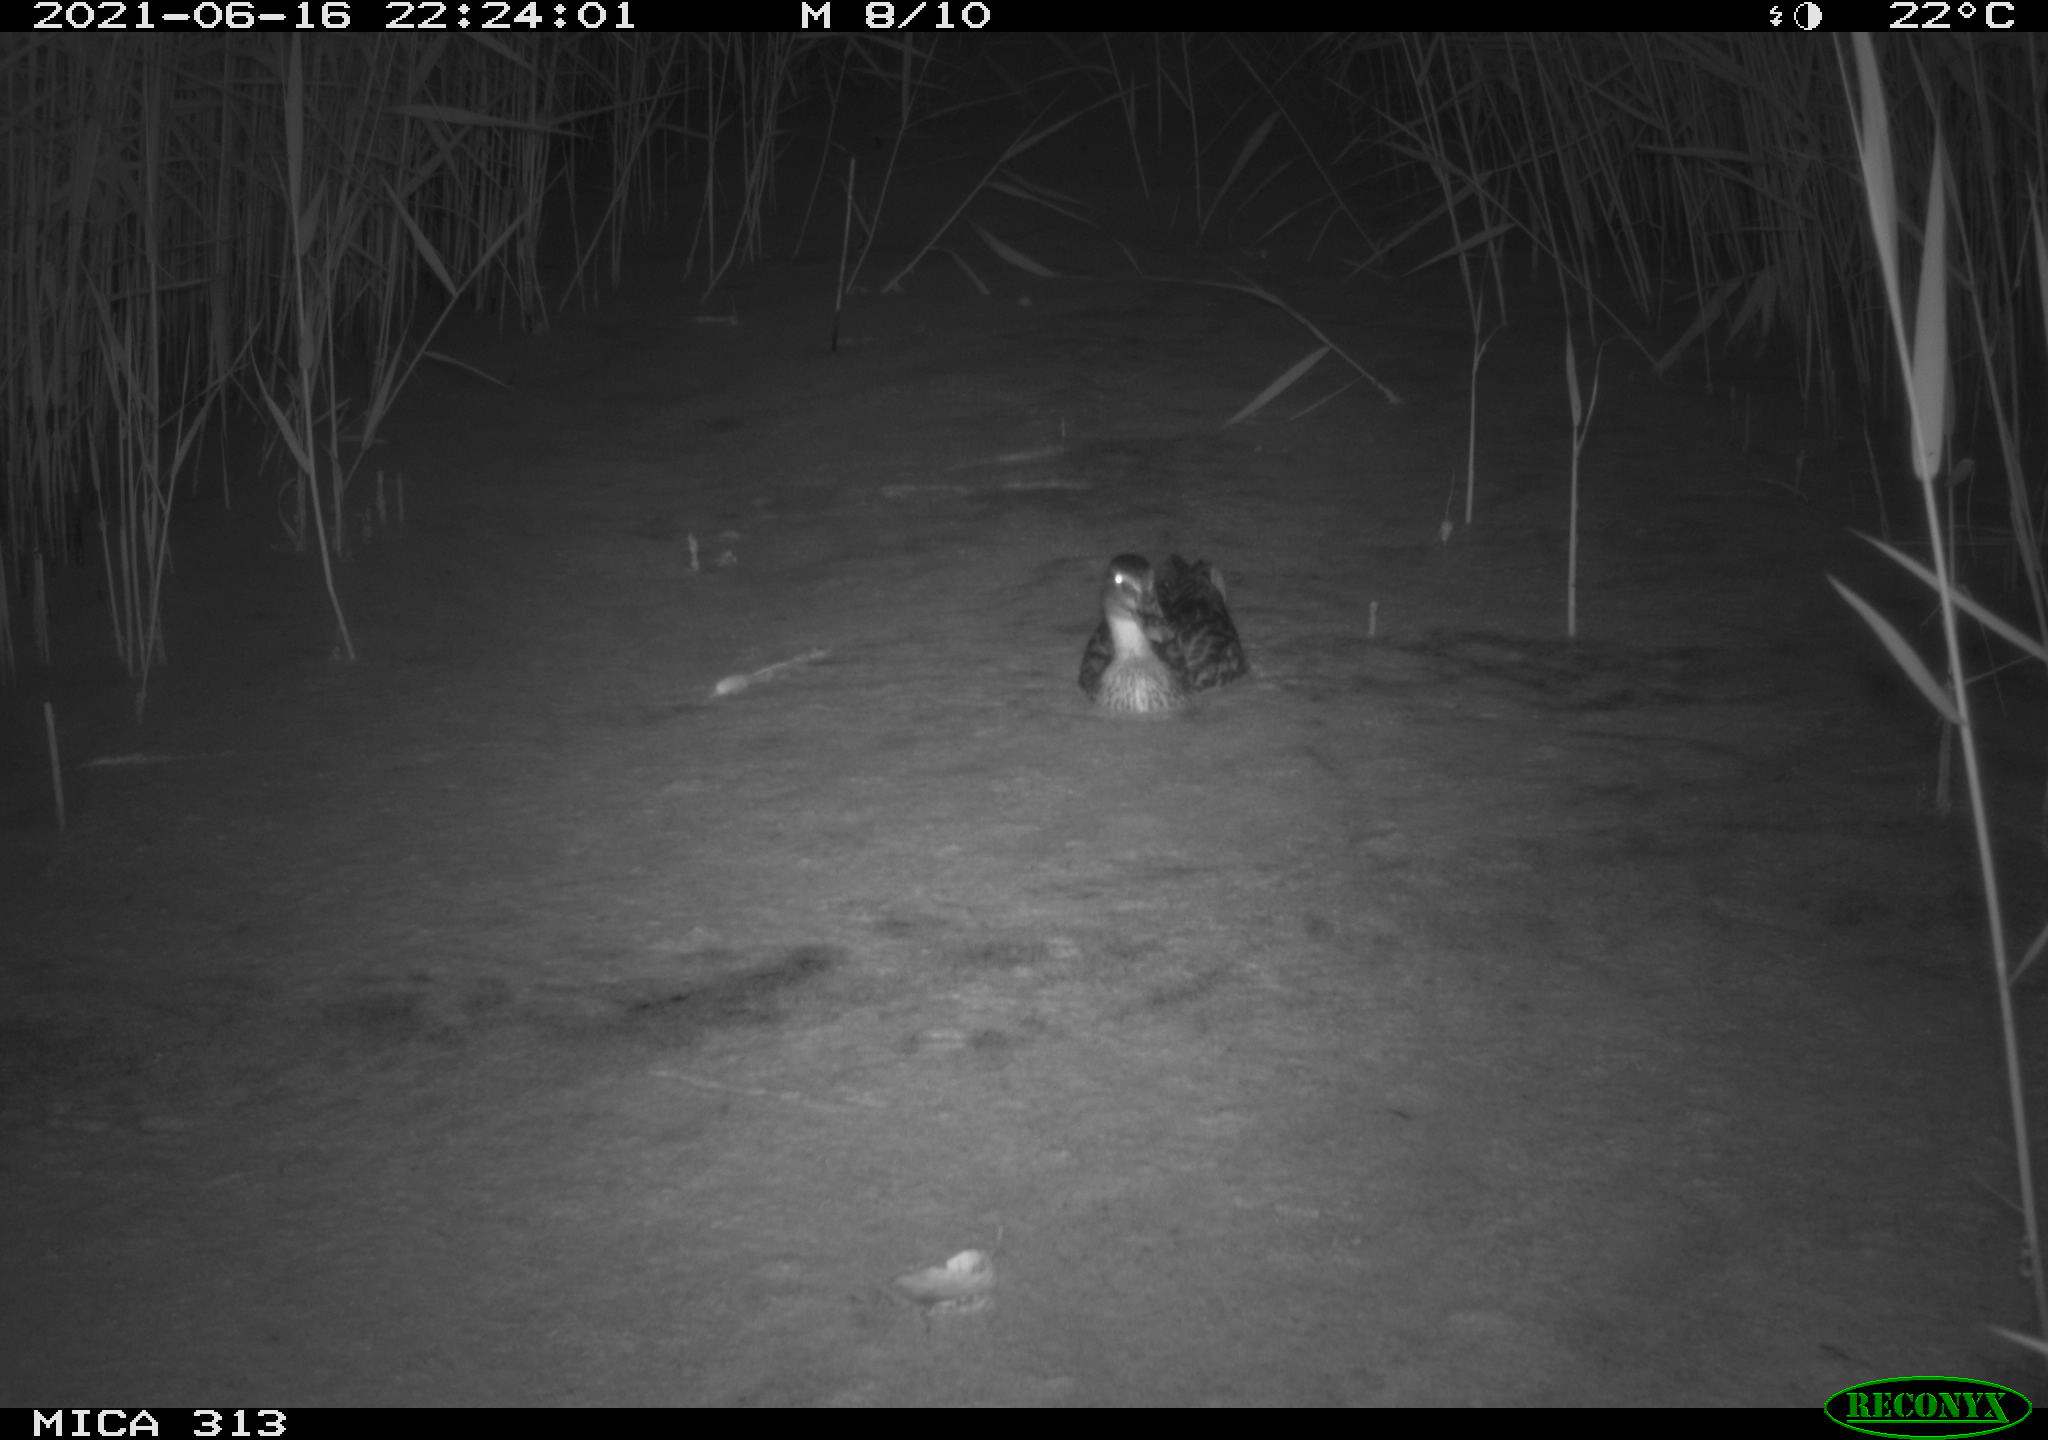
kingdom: Animalia
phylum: Chordata
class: Aves
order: Anseriformes
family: Anatidae
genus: Anas
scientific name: Anas
